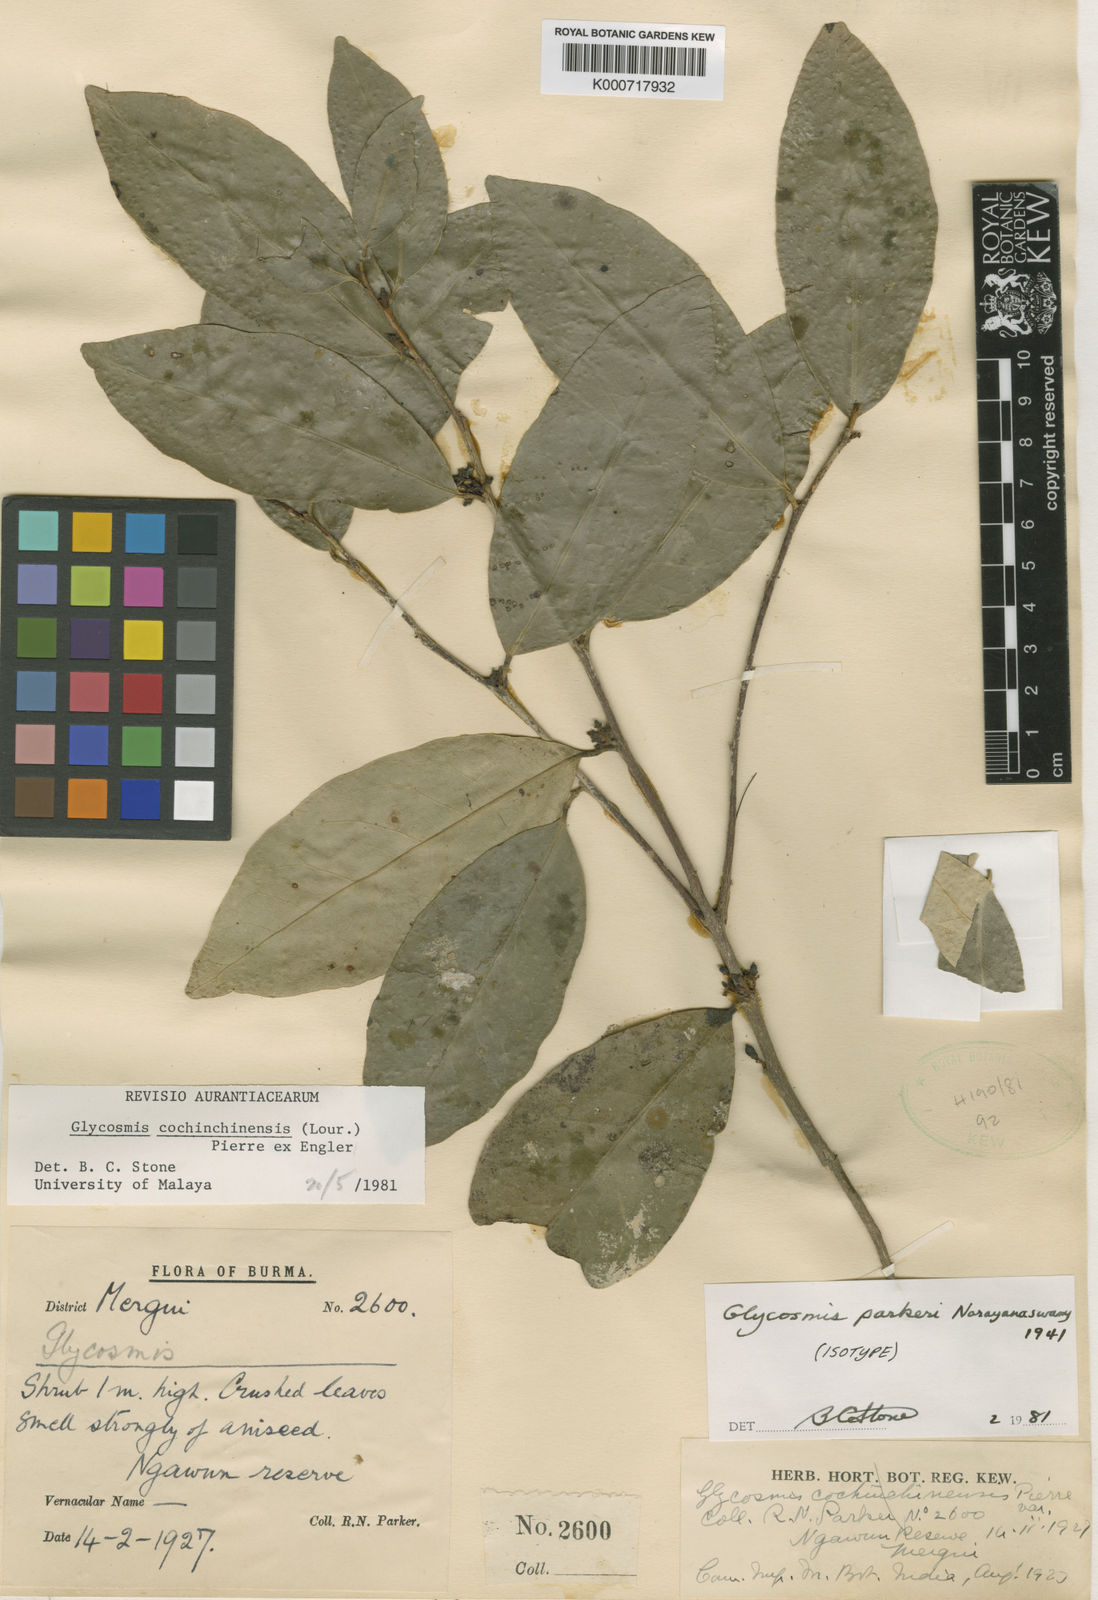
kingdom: Plantae
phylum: Tracheophyta
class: Magnoliopsida
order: Sapindales
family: Rutaceae
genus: Glycosmis
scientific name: Glycosmis
